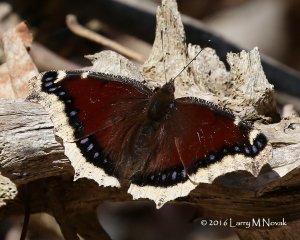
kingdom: Animalia
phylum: Arthropoda
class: Insecta
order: Lepidoptera
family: Nymphalidae
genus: Nymphalis
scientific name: Nymphalis antiopa
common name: Mourning Cloak
